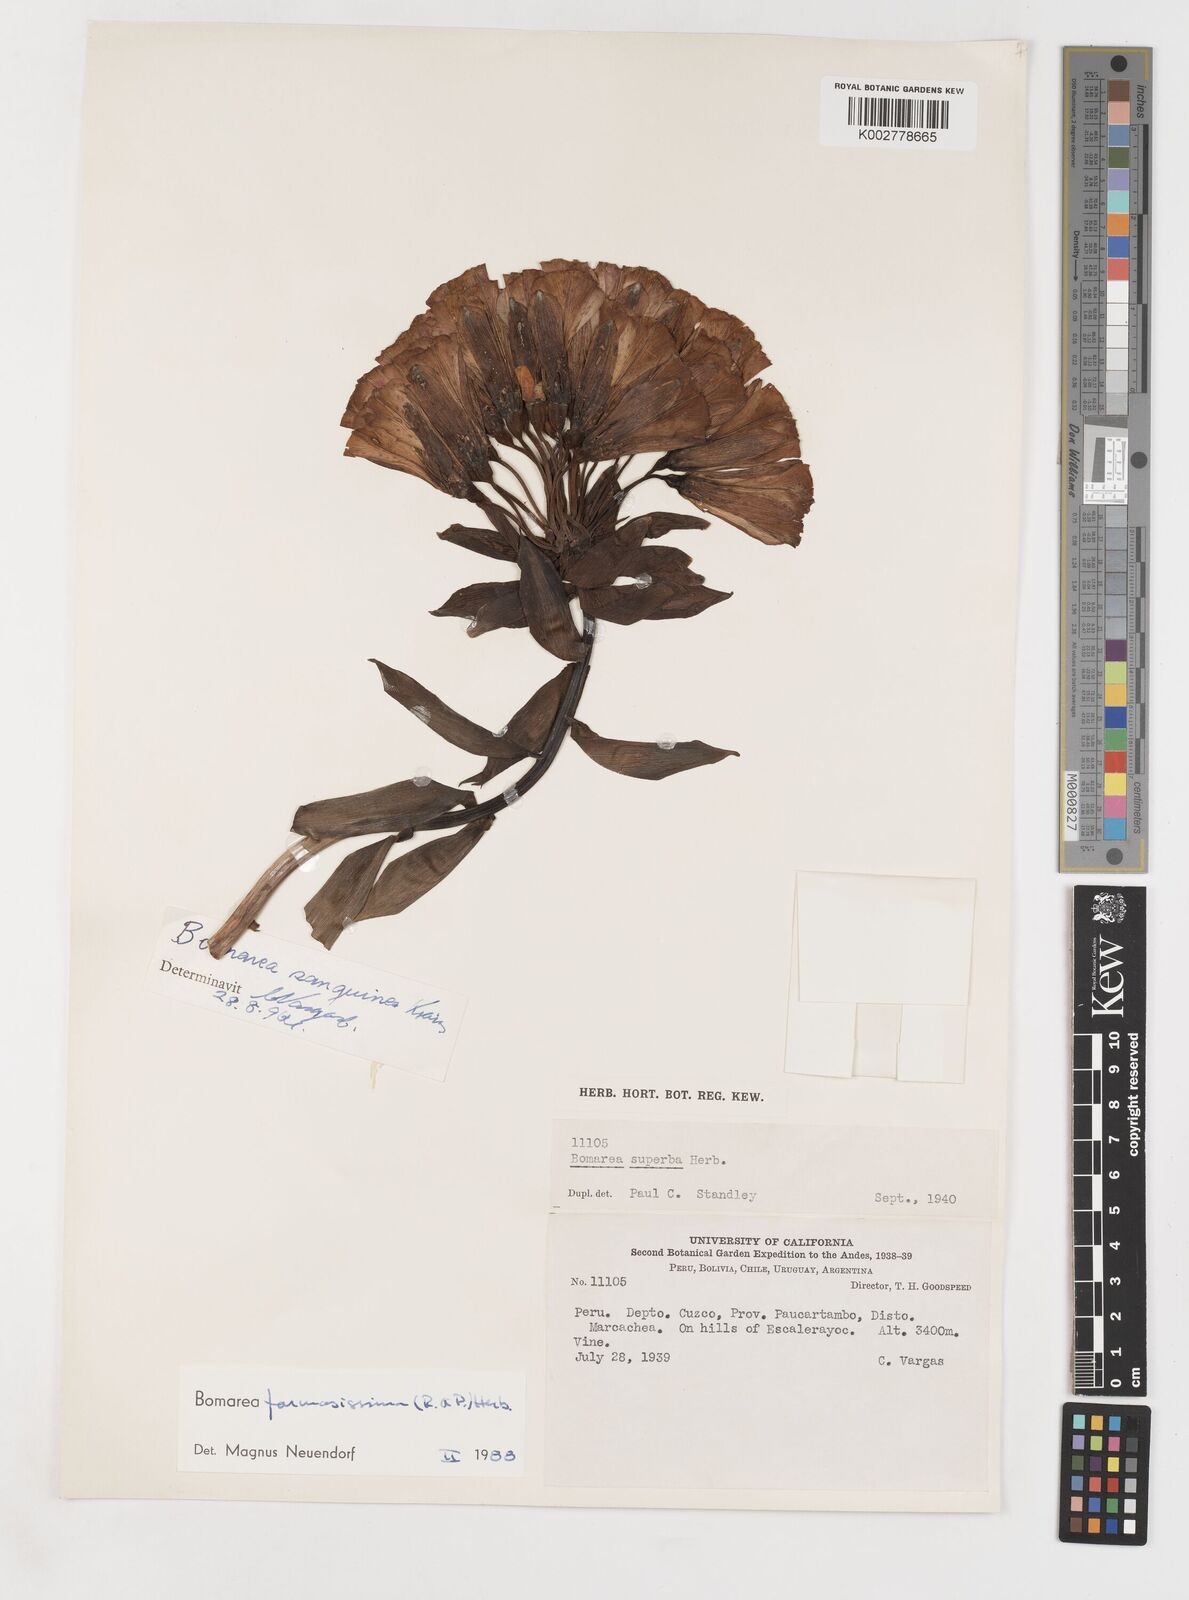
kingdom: Plantae
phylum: Tracheophyta
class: Liliopsida
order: Liliales
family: Alstroemeriaceae
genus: Bomarea
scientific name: Bomarea formosissima
